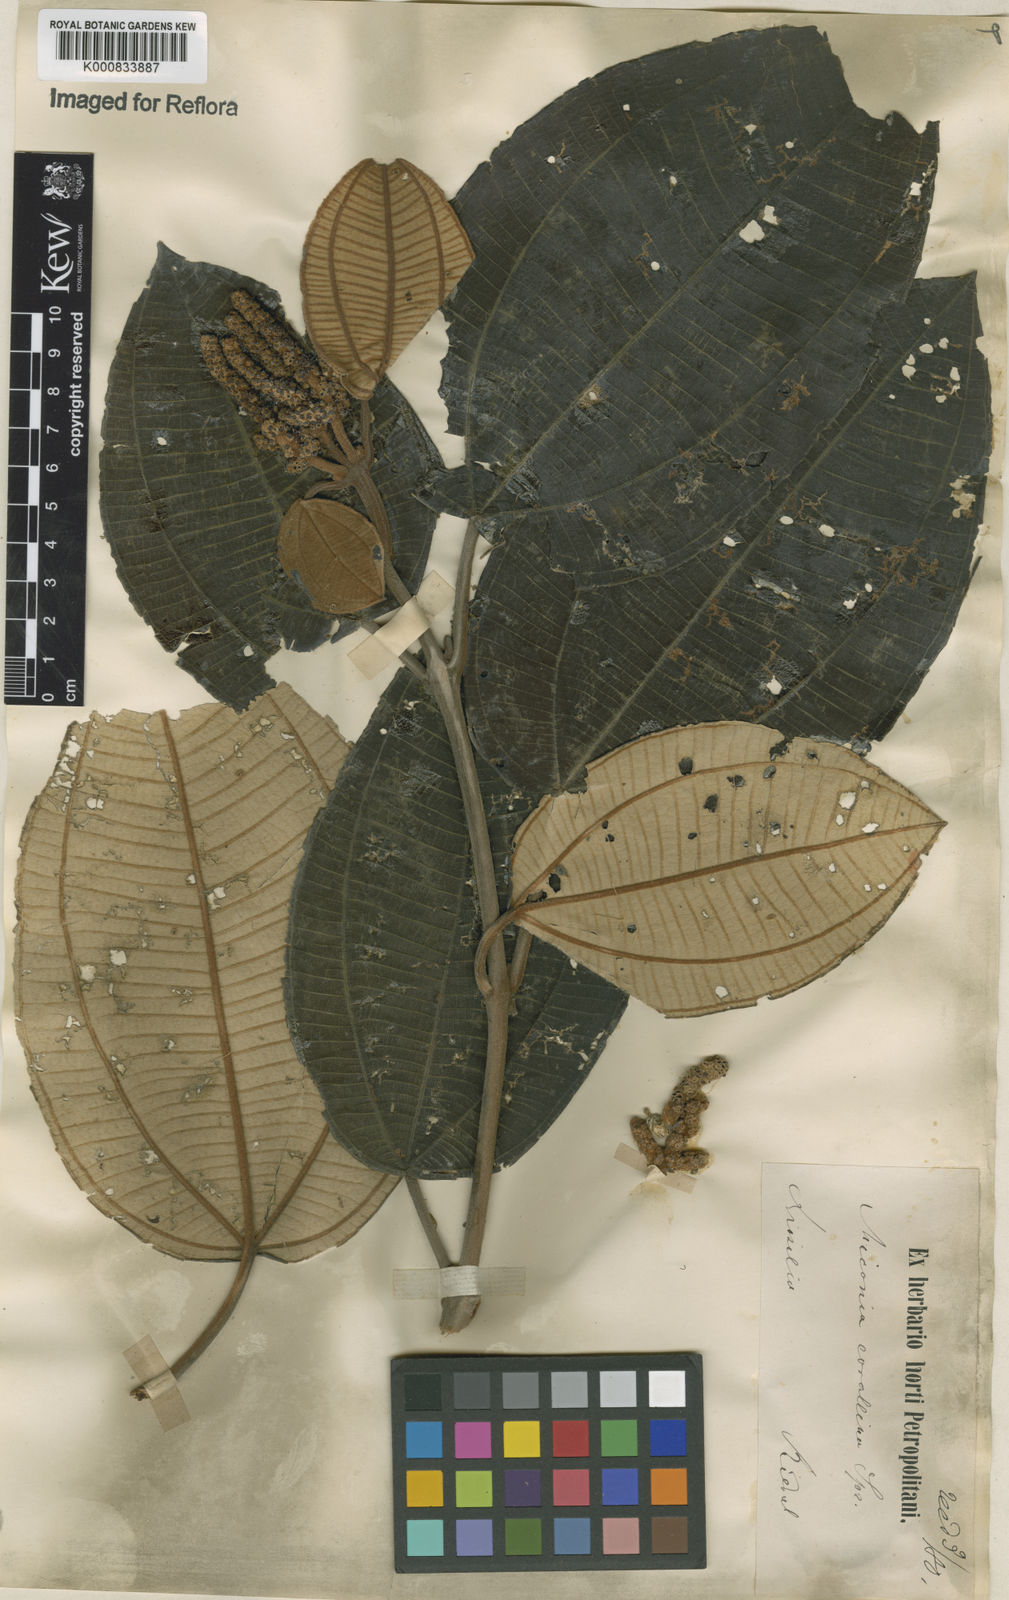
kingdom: Plantae
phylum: Tracheophyta
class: Magnoliopsida
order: Myrtales
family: Melastomataceae
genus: Miconia
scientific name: Miconia
